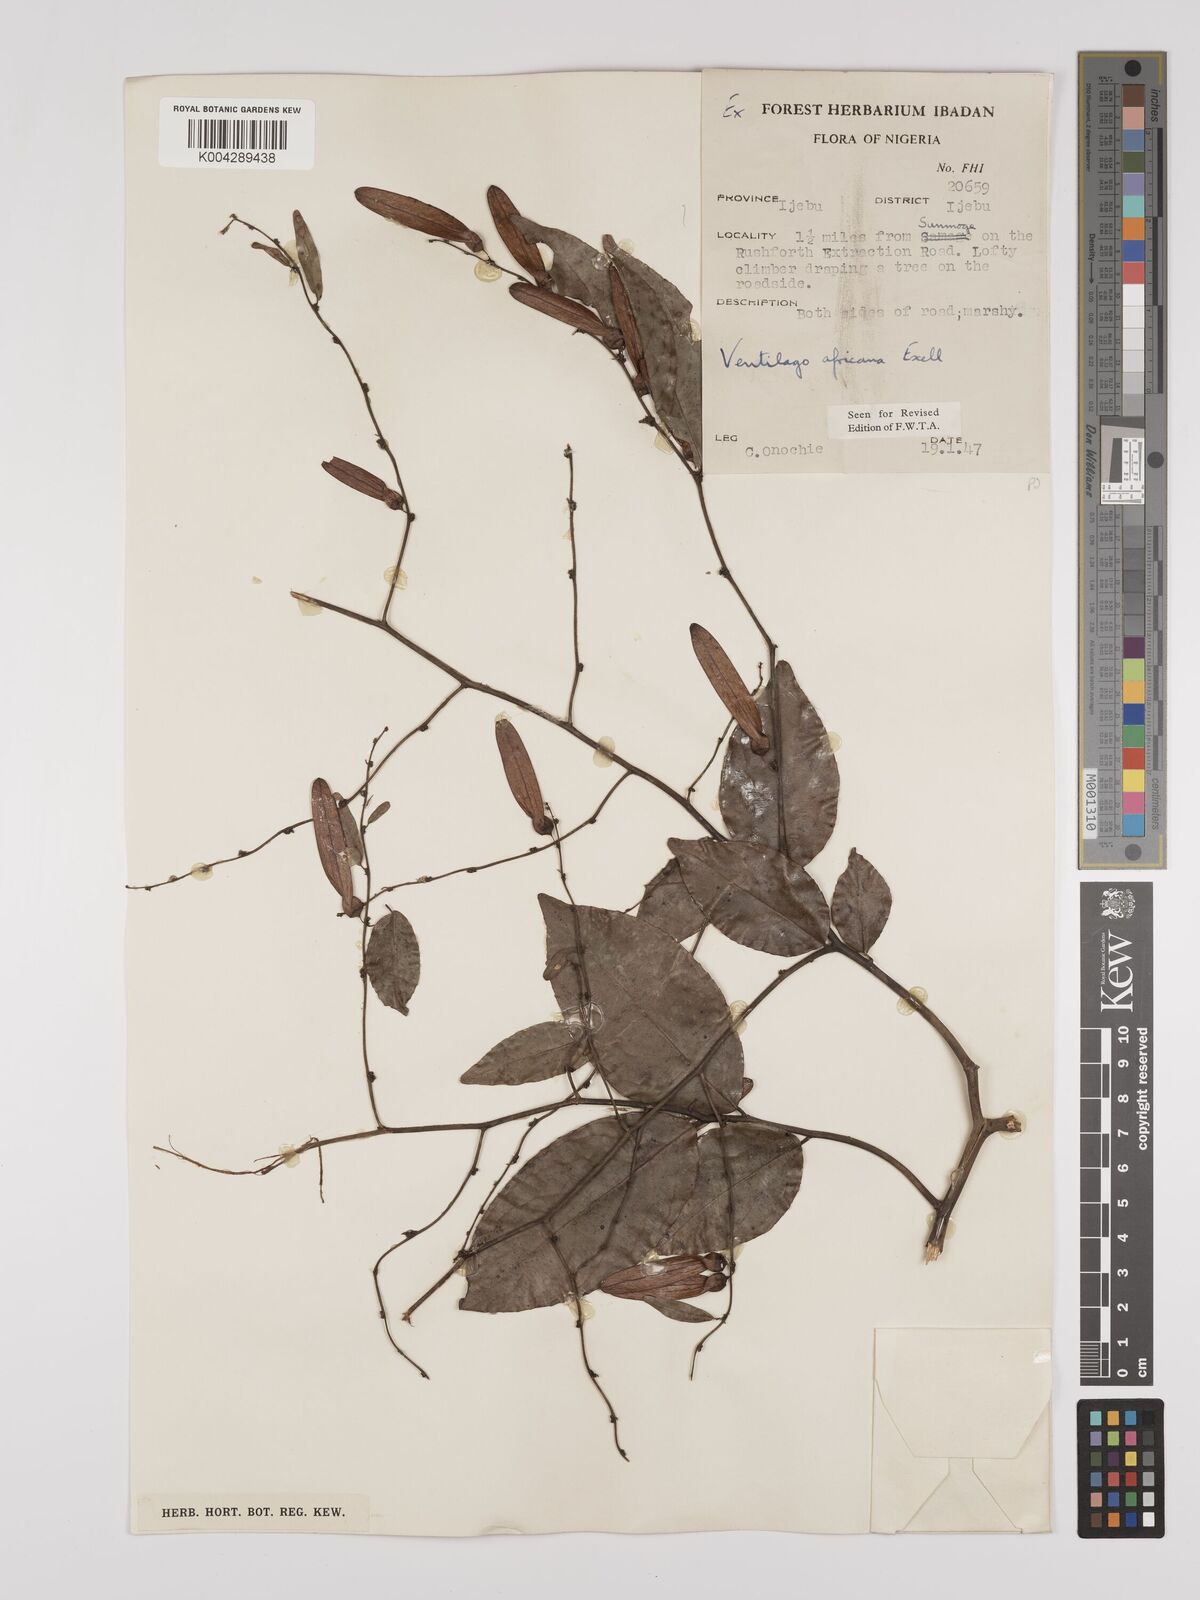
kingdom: Plantae
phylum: Tracheophyta
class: Magnoliopsida
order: Rosales
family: Rhamnaceae
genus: Ventilago
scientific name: Ventilago africana
